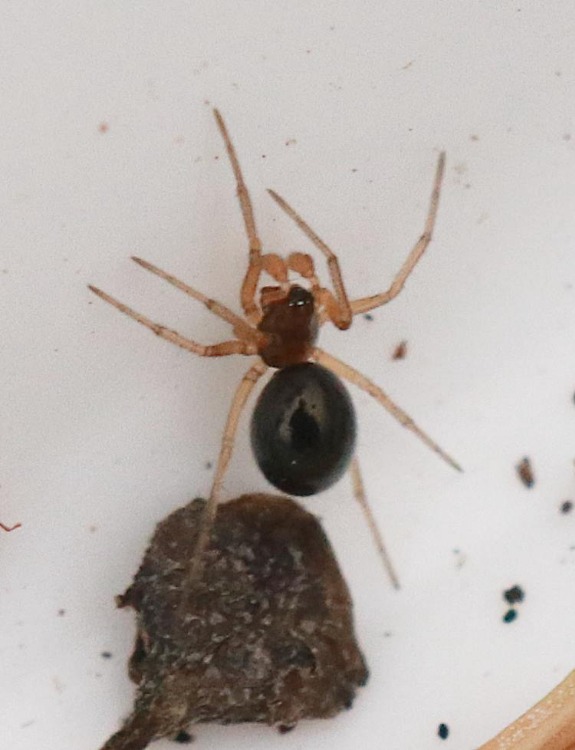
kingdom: Animalia
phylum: Arthropoda
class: Arachnida
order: Araneae
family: Linyphiidae
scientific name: Linyphiidae
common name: Tæppespindere
